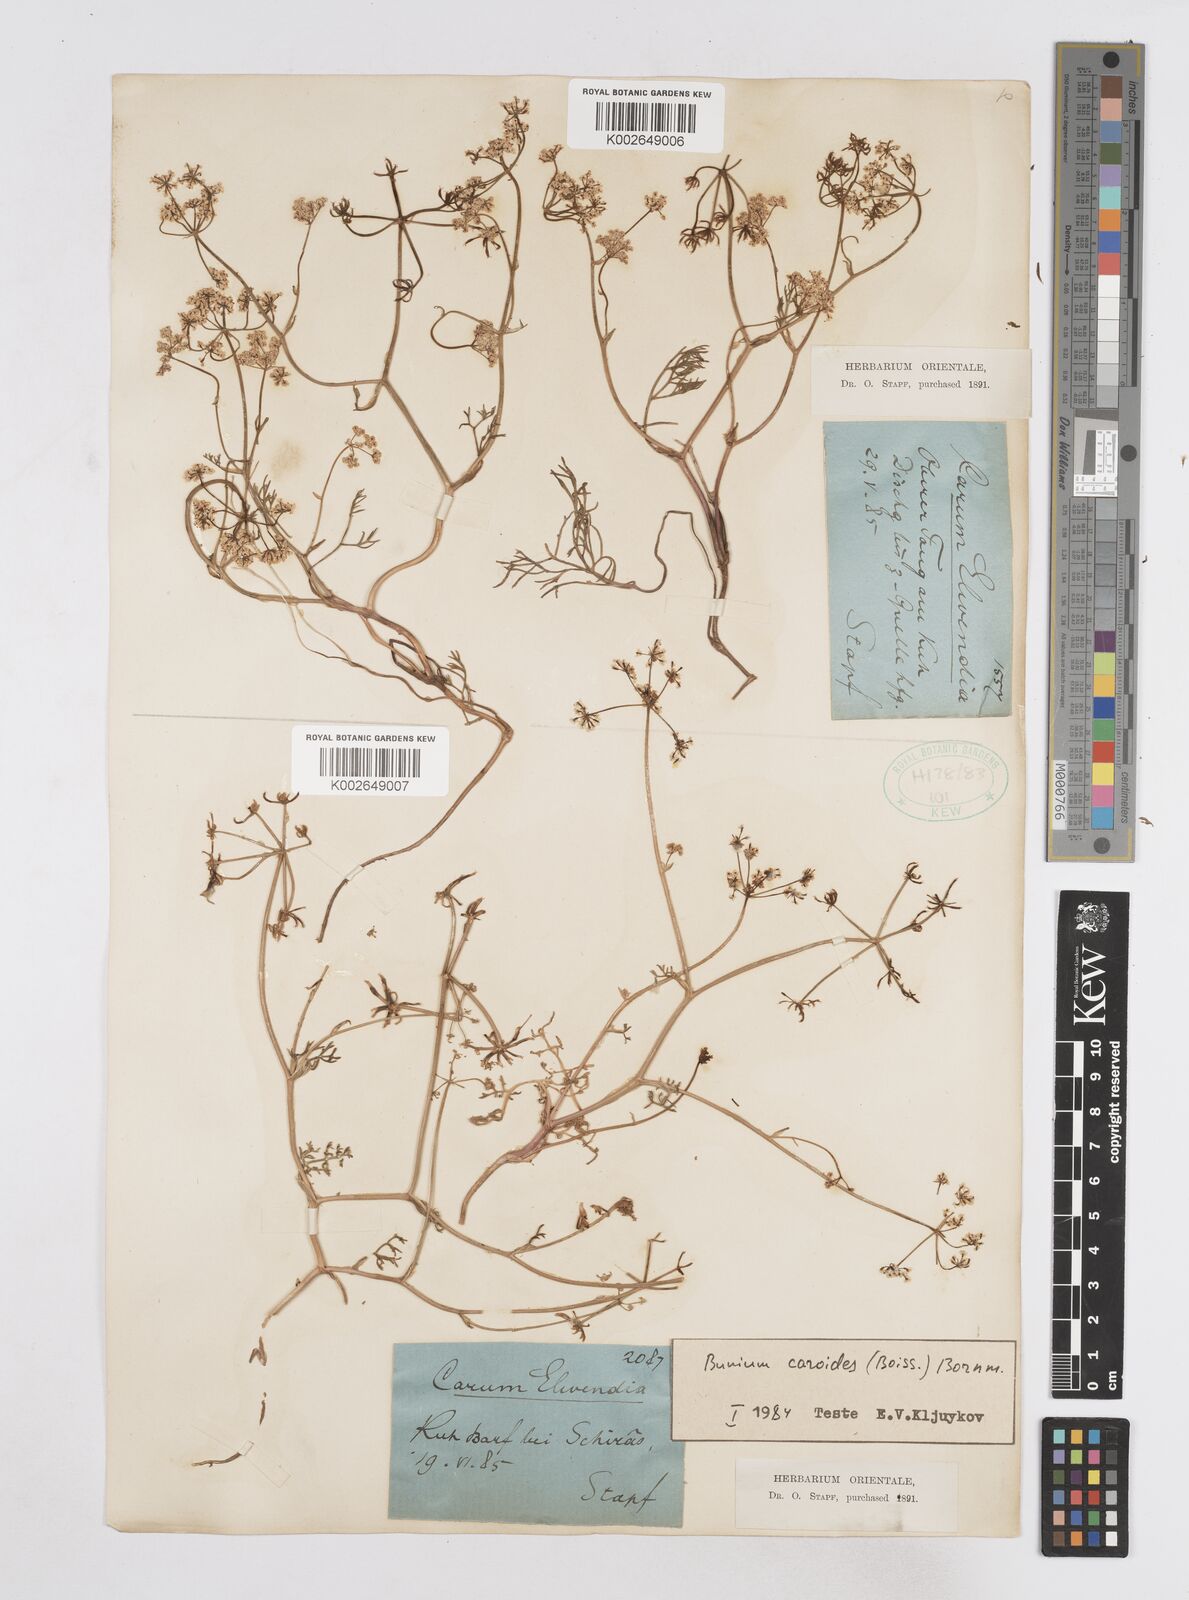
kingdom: Plantae
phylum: Tracheophyta
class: Magnoliopsida
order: Apiales
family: Apiaceae
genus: Elwendia
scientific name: Elwendia caroides
